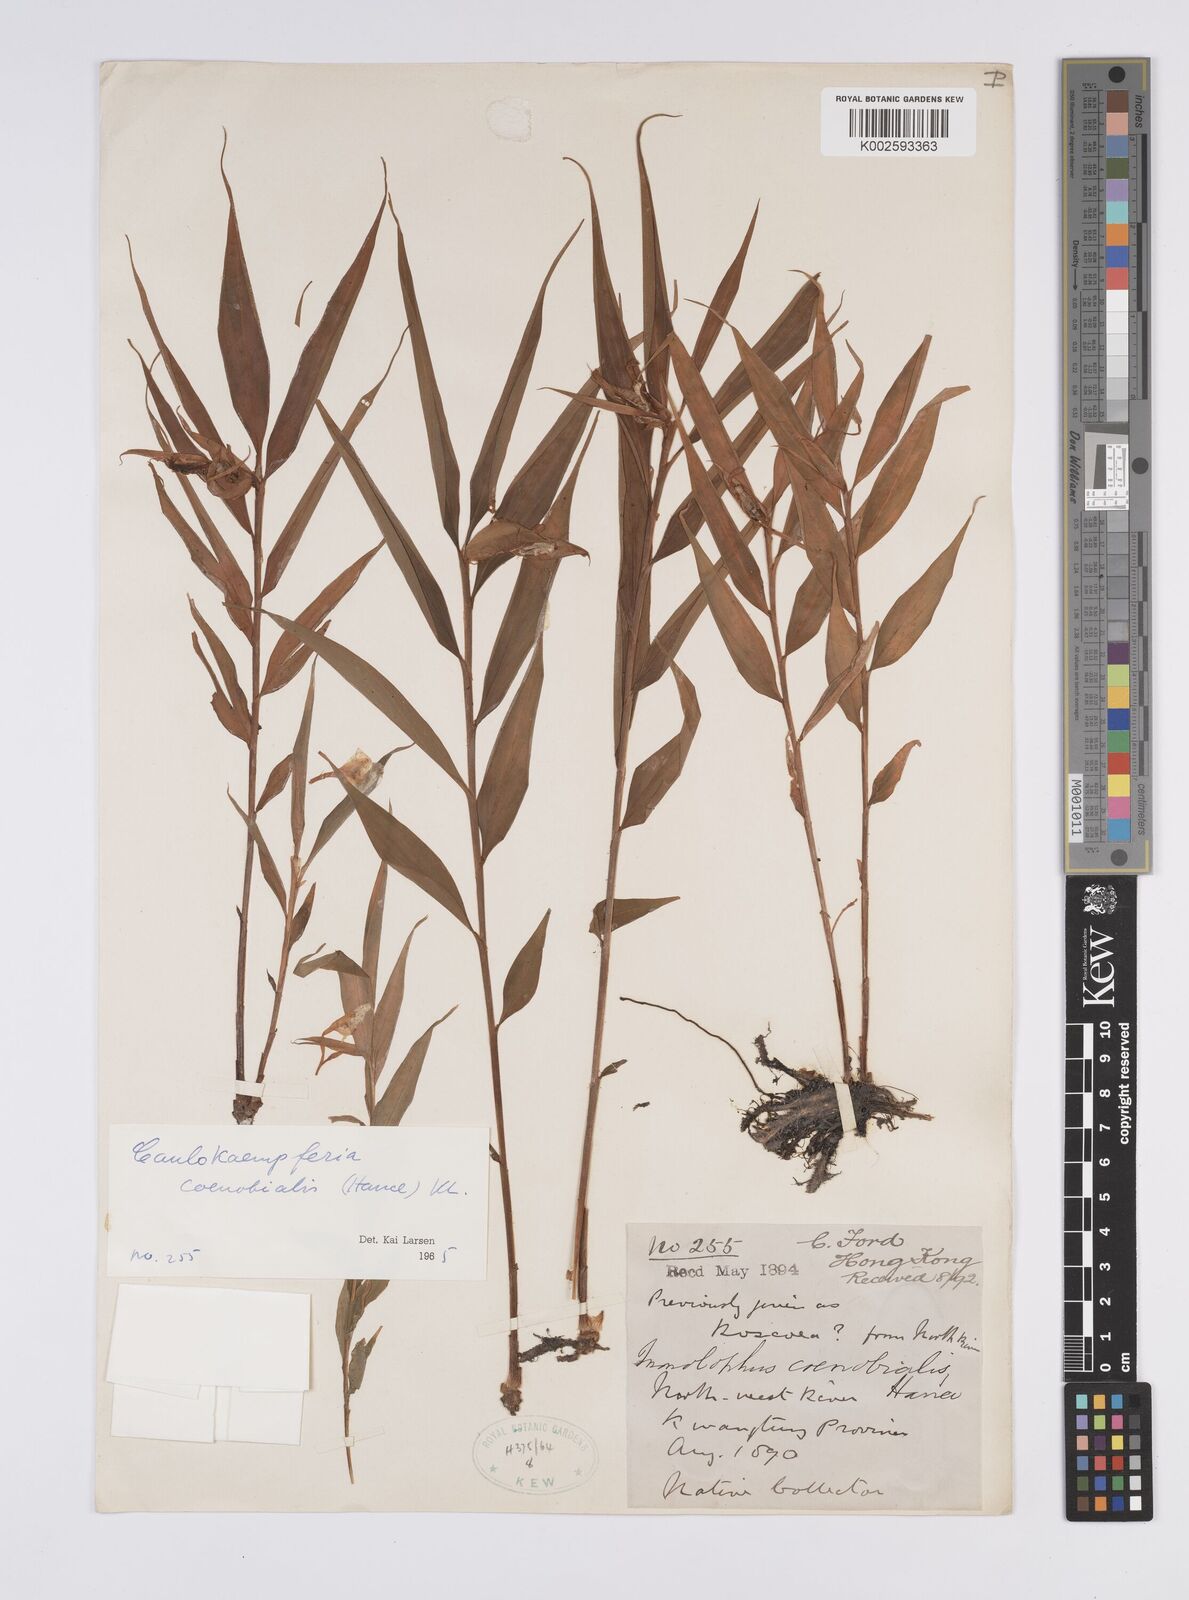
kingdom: Plantae
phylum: Tracheophyta
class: Liliopsida
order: Zingiberales
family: Zingiberaceae
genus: Caulokaempferia
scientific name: Caulokaempferia coenobialis
